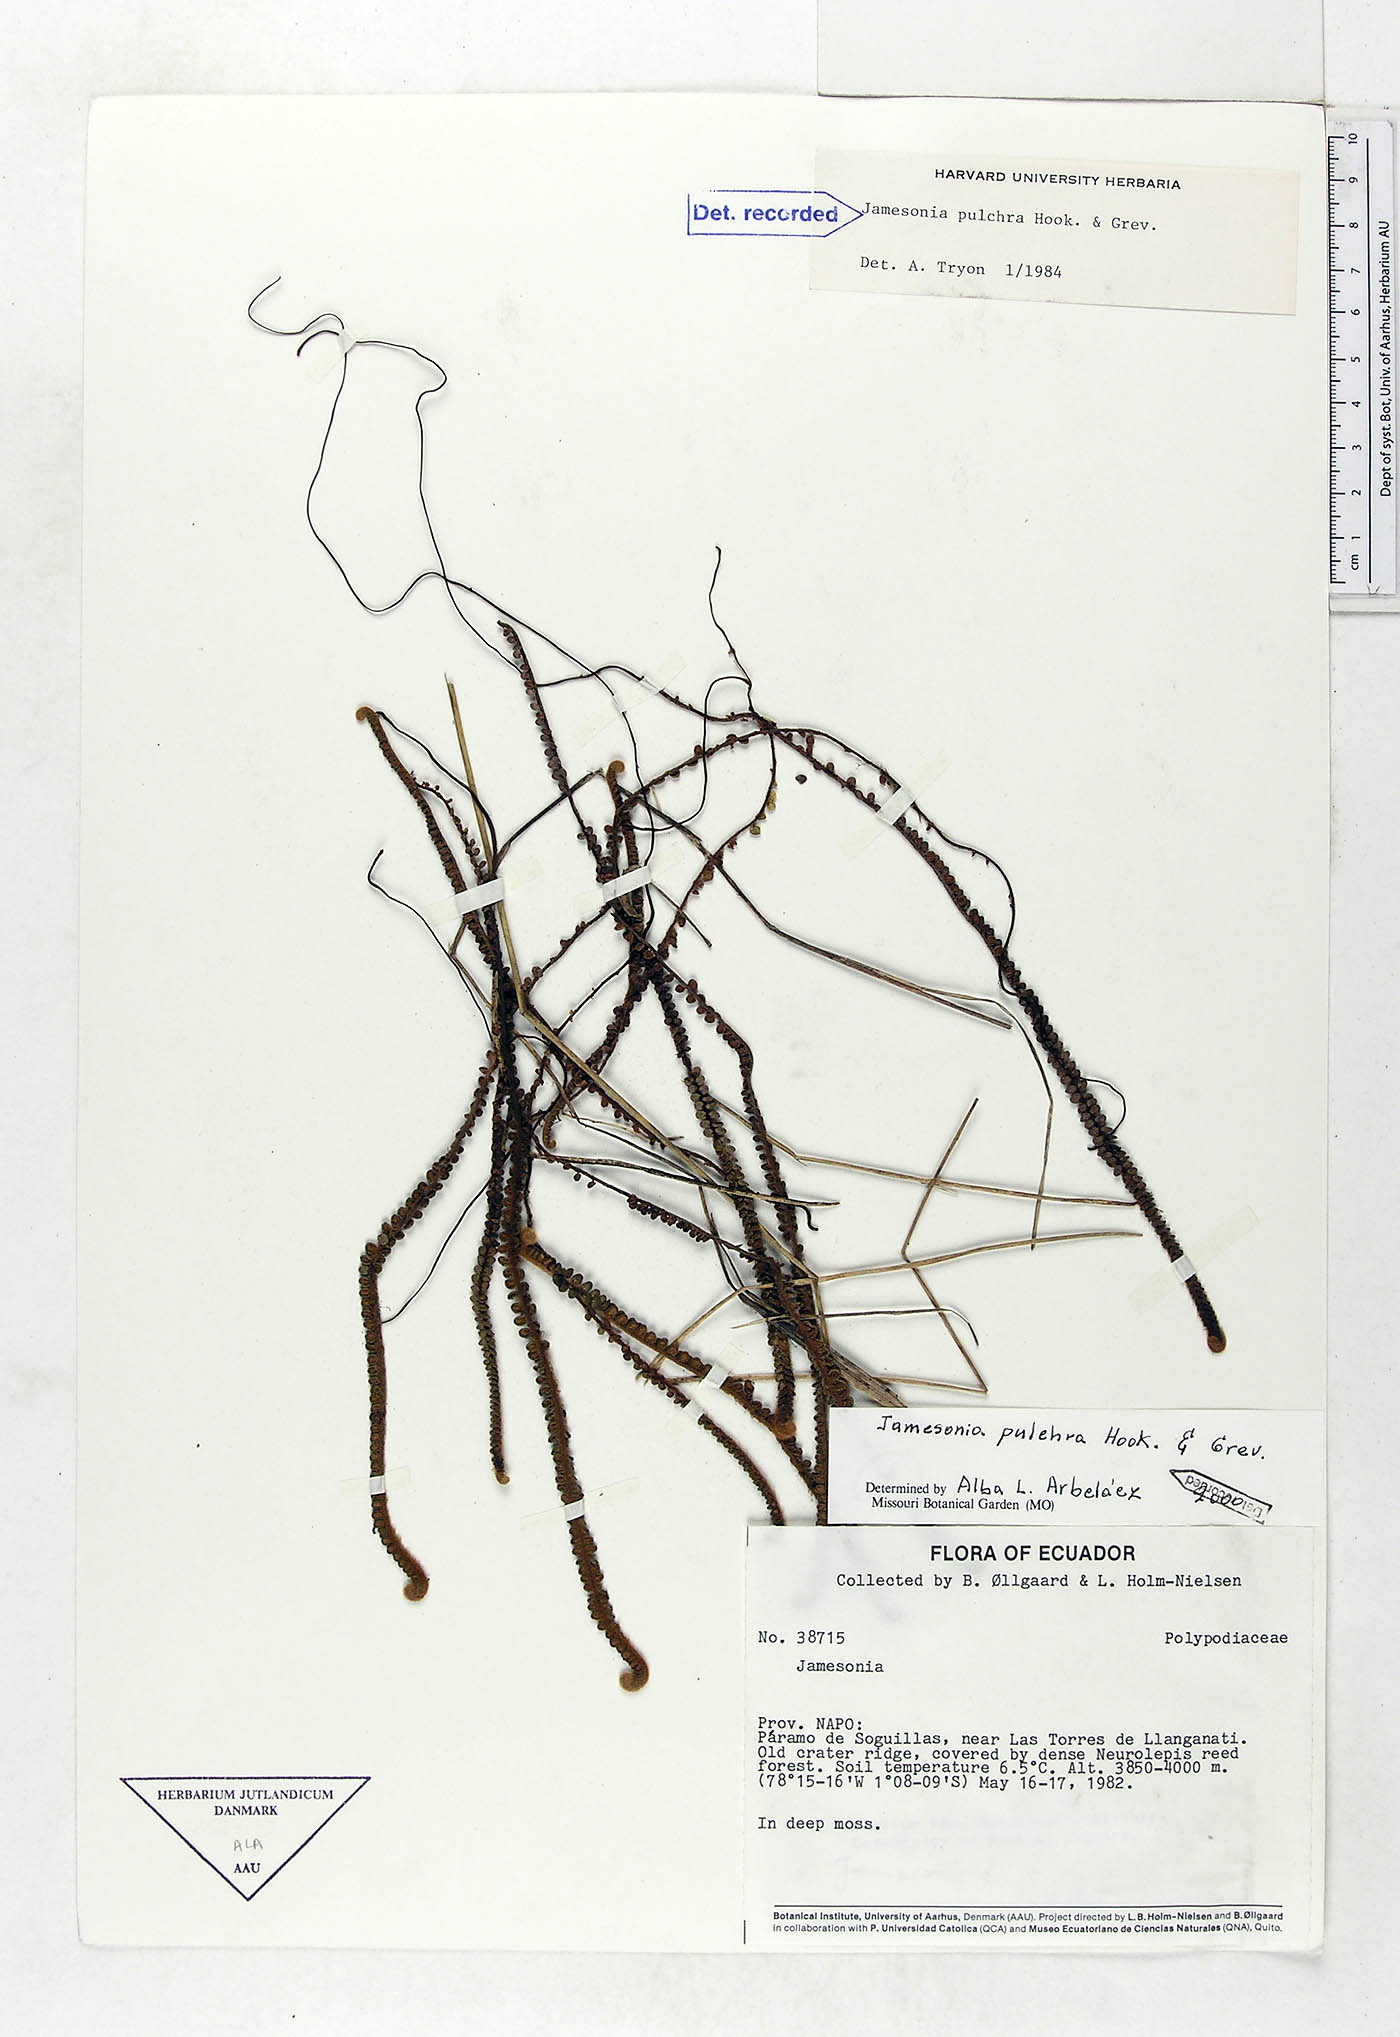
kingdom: Plantae
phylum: Tracheophyta
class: Polypodiopsida
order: Polypodiales
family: Pteridaceae
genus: Jamesonia
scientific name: Jamesonia pulchra
